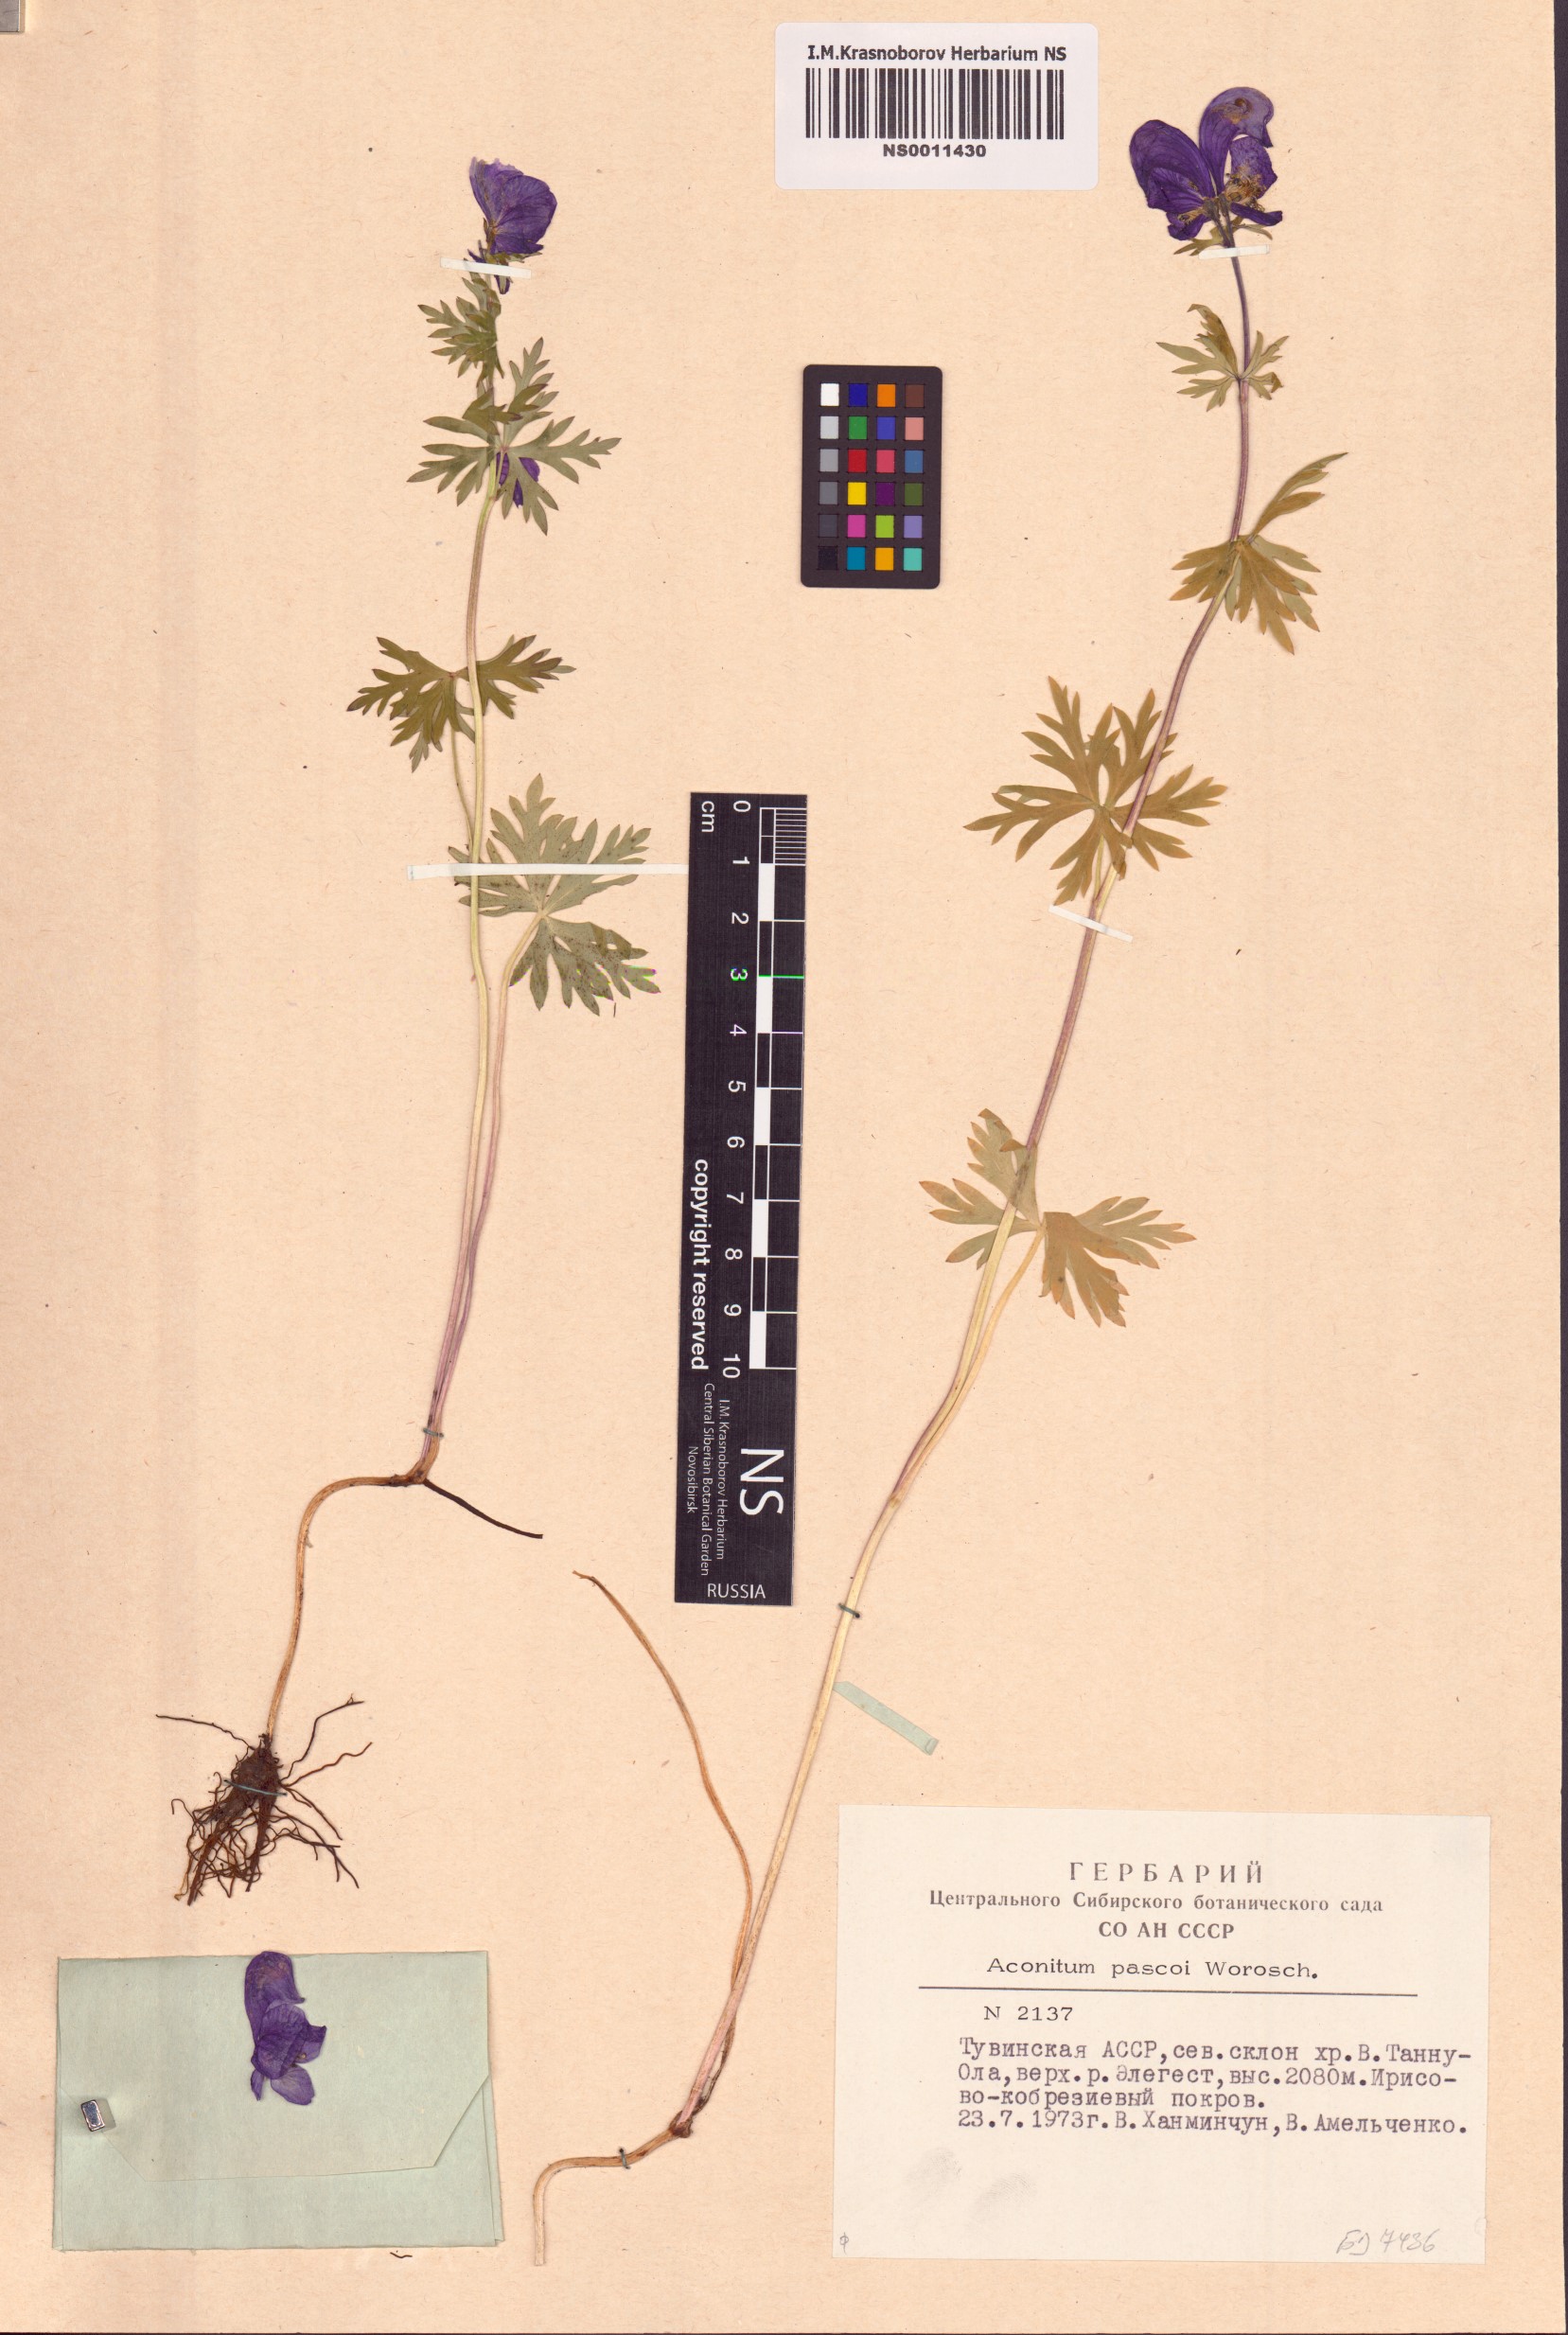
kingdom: Plantae
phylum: Tracheophyta
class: Magnoliopsida
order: Ranunculales
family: Ranunculaceae
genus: Aconitum
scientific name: Aconitum pascoi
